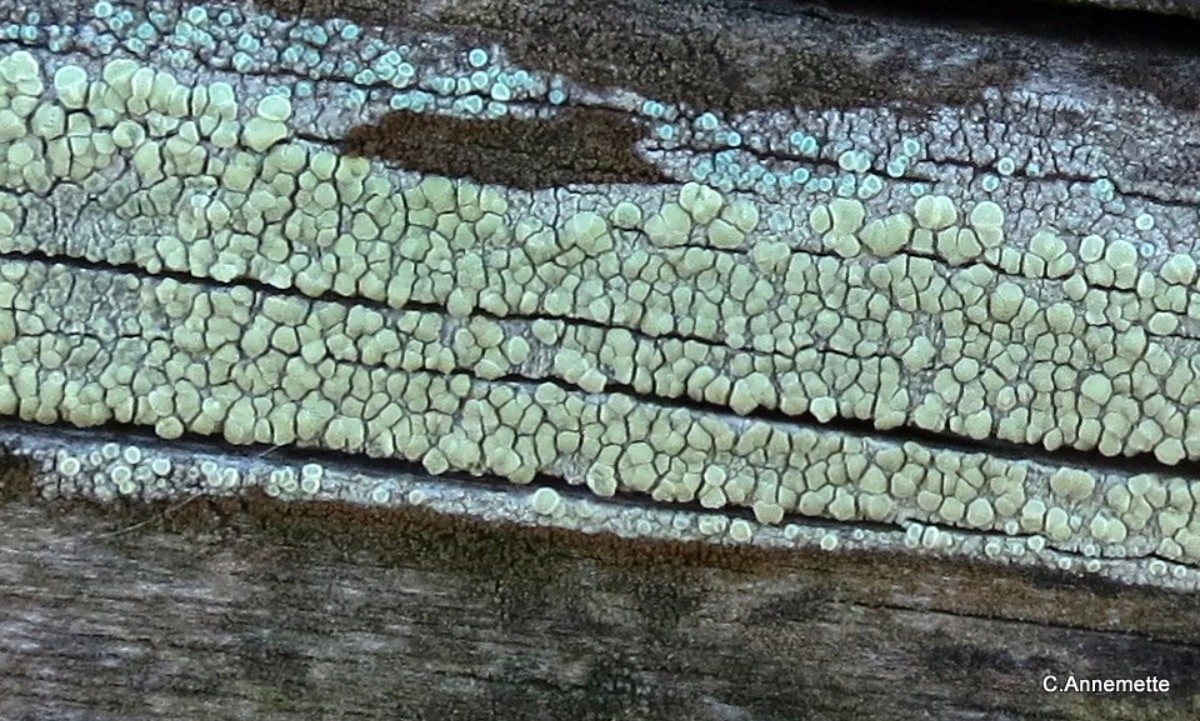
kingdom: Fungi
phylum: Ascomycota
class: Lecanoromycetes
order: Lecanorales
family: Lecanoraceae
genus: Lecanora
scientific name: Lecanora polytropa
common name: bleggrøn kantskivelav
